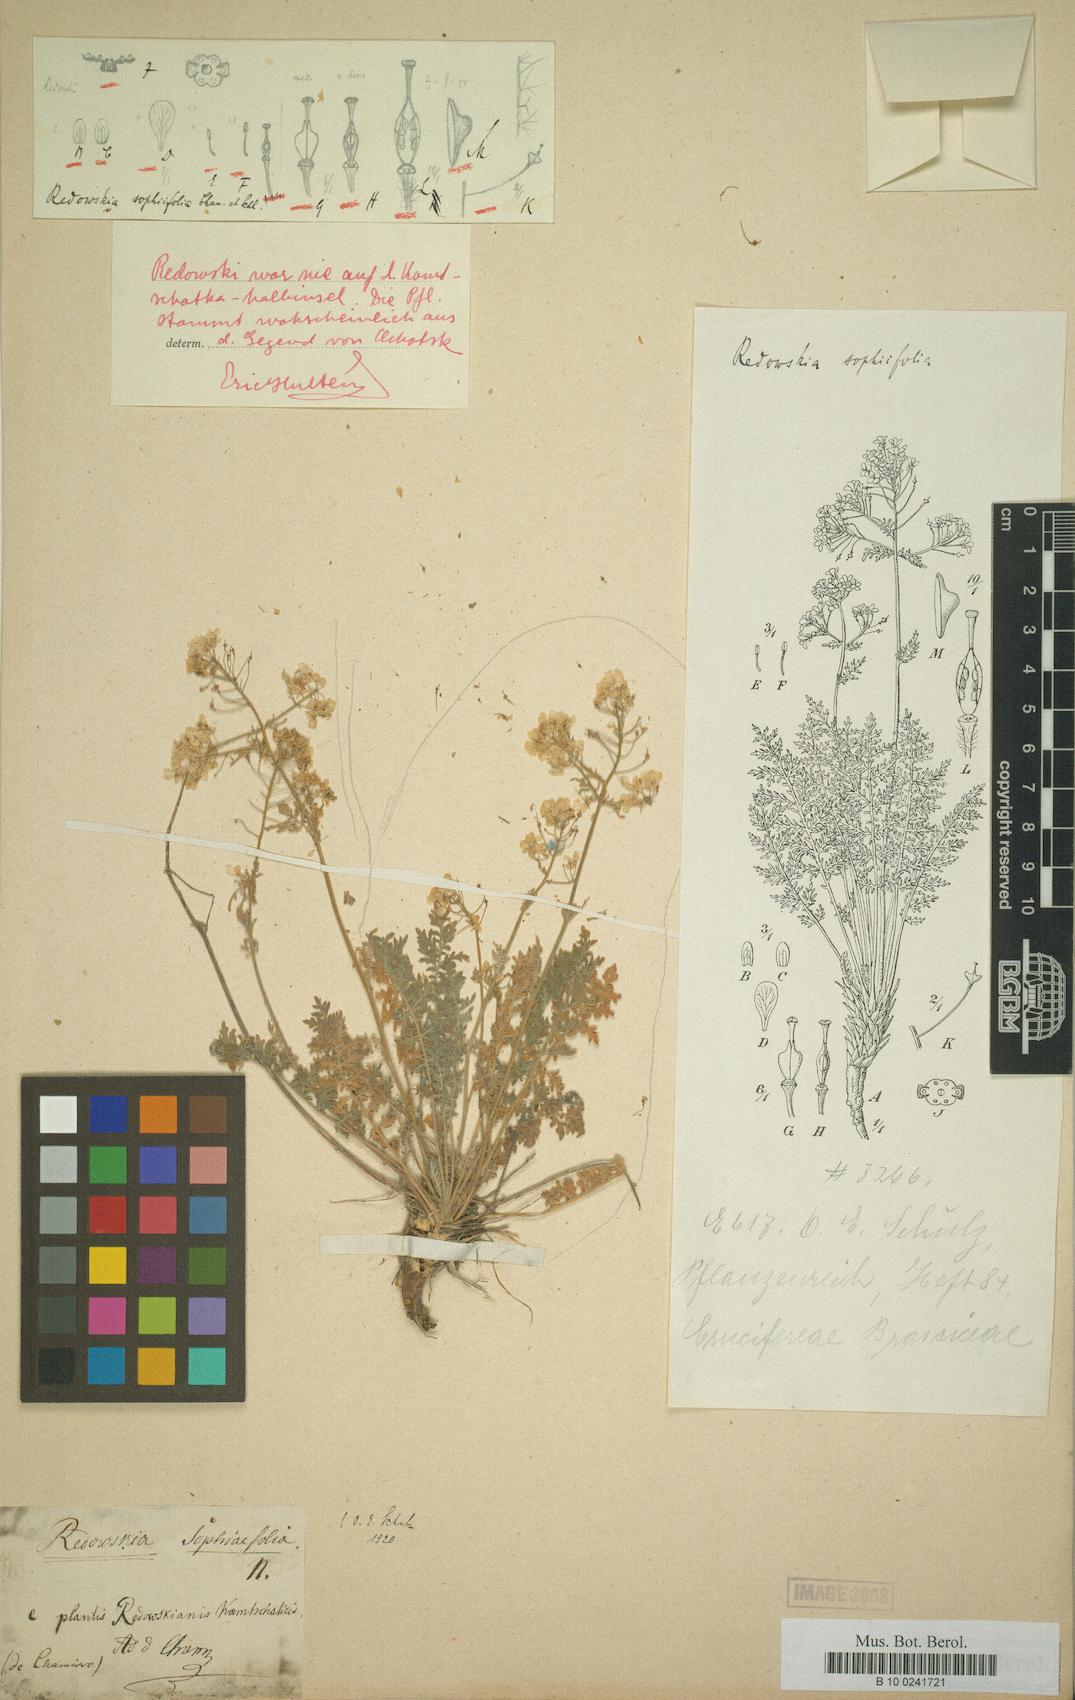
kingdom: Plantae
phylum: Tracheophyta
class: Magnoliopsida
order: Brassicales
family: Brassicaceae
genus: Smelowskia
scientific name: Smelowskia sophiifolia
